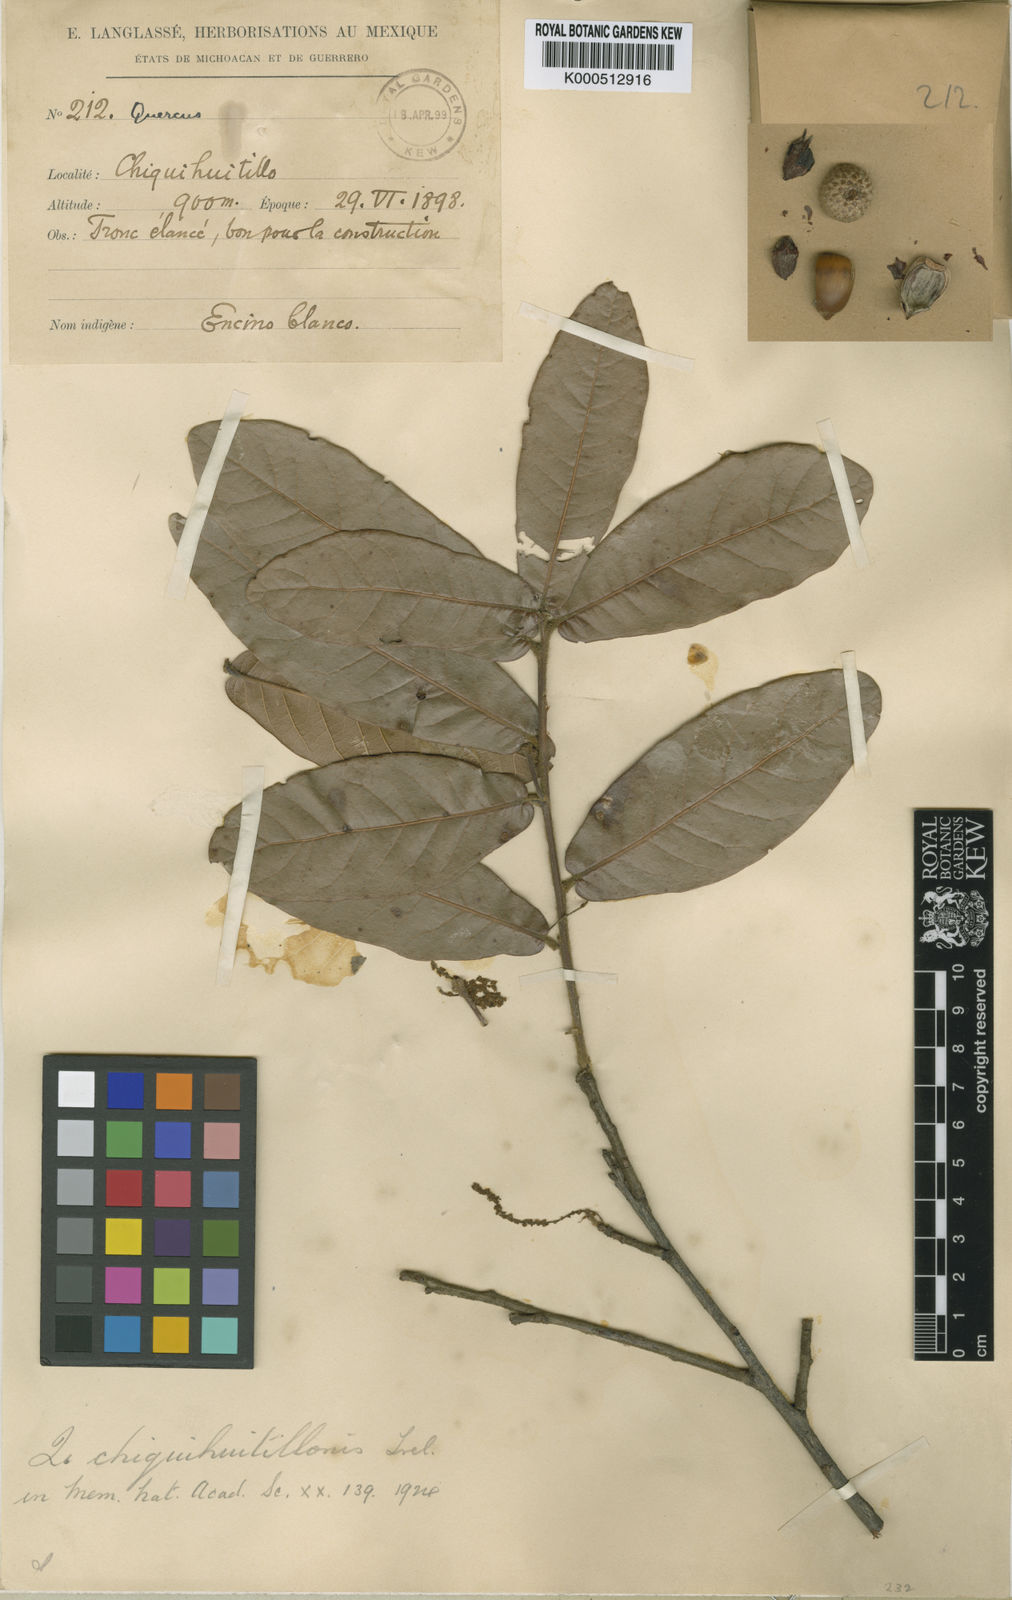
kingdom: Plantae
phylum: Tracheophyta
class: Magnoliopsida
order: Fagales
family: Fagaceae
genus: Quercus
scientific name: Quercus elliptica
